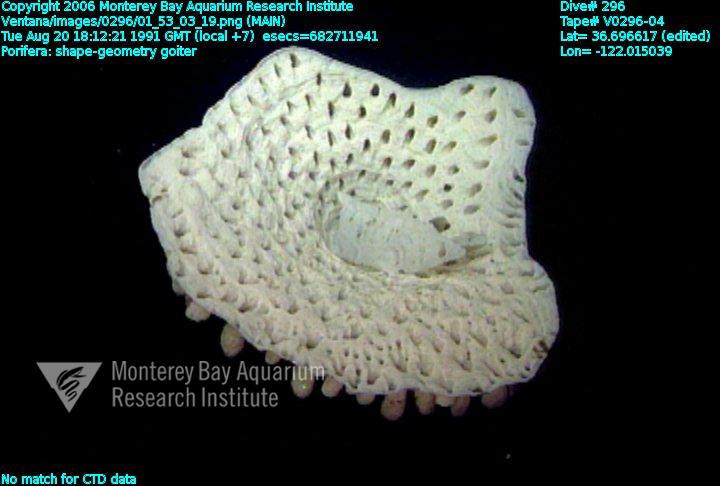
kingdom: Animalia
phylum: Porifera
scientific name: Porifera
